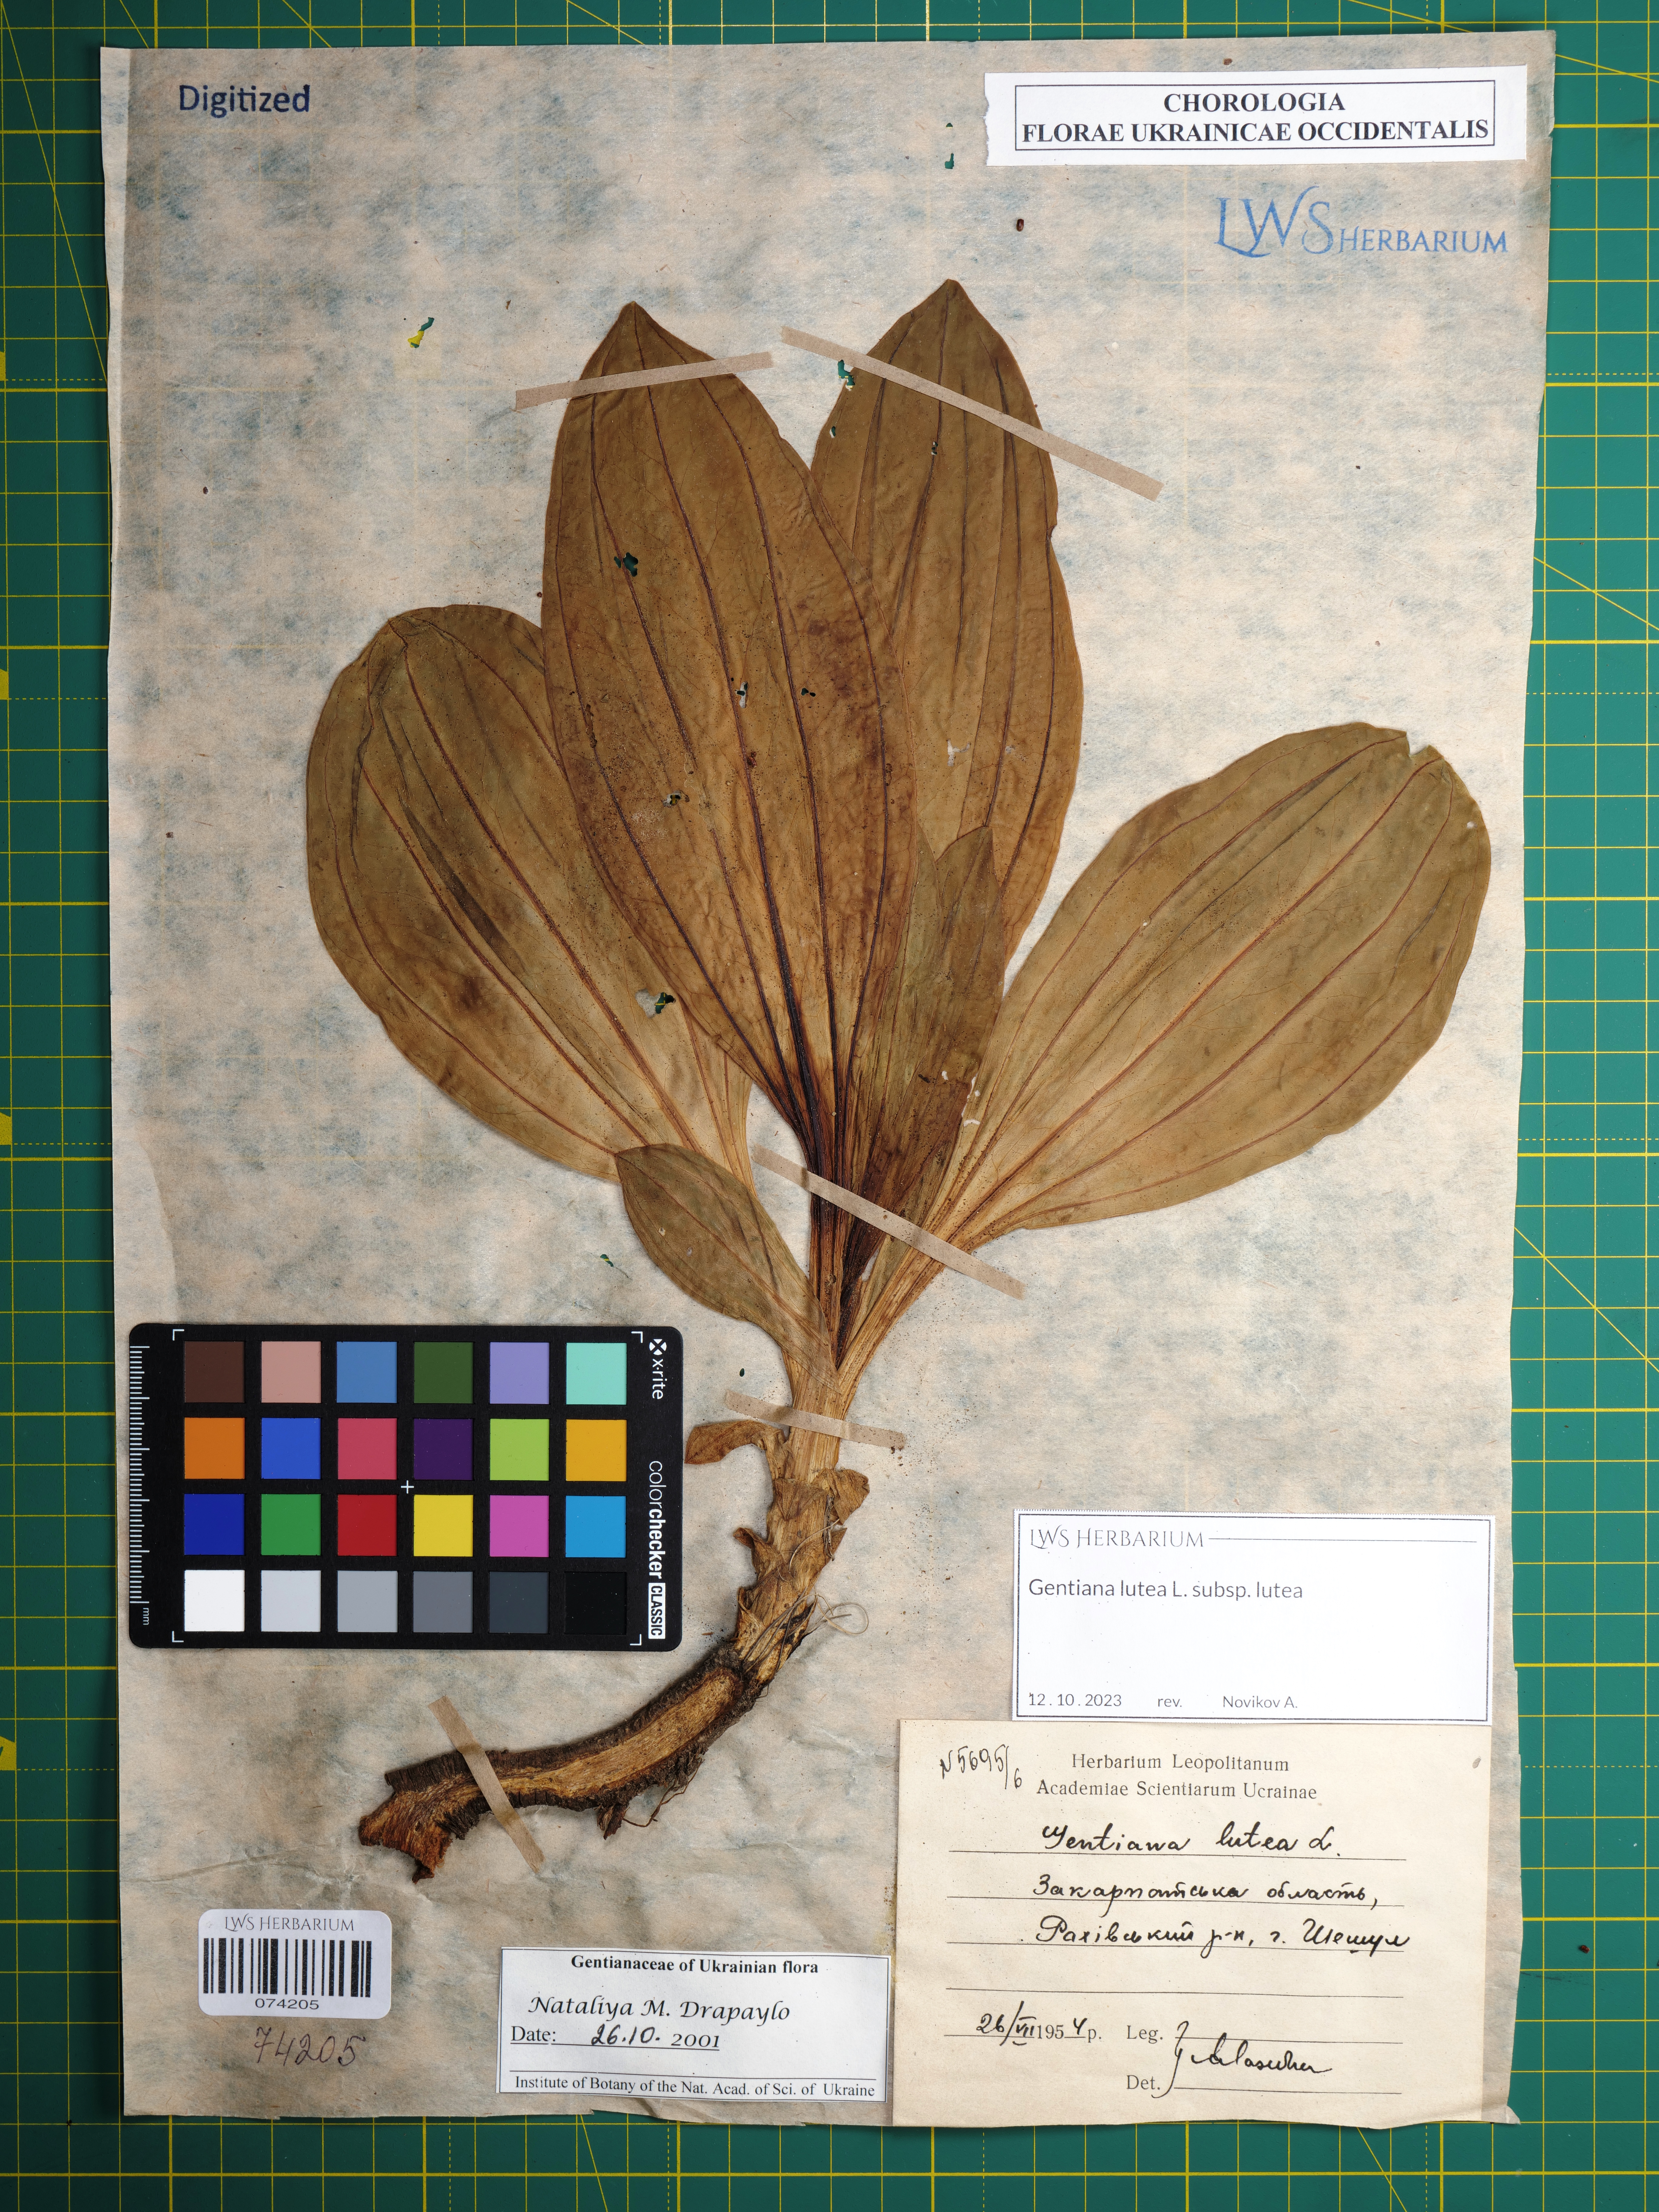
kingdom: Plantae
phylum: Tracheophyta
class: Magnoliopsida
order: Gentianales
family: Gentianaceae
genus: Gentiana
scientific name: Gentiana lutea
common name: Great yellow gentian
